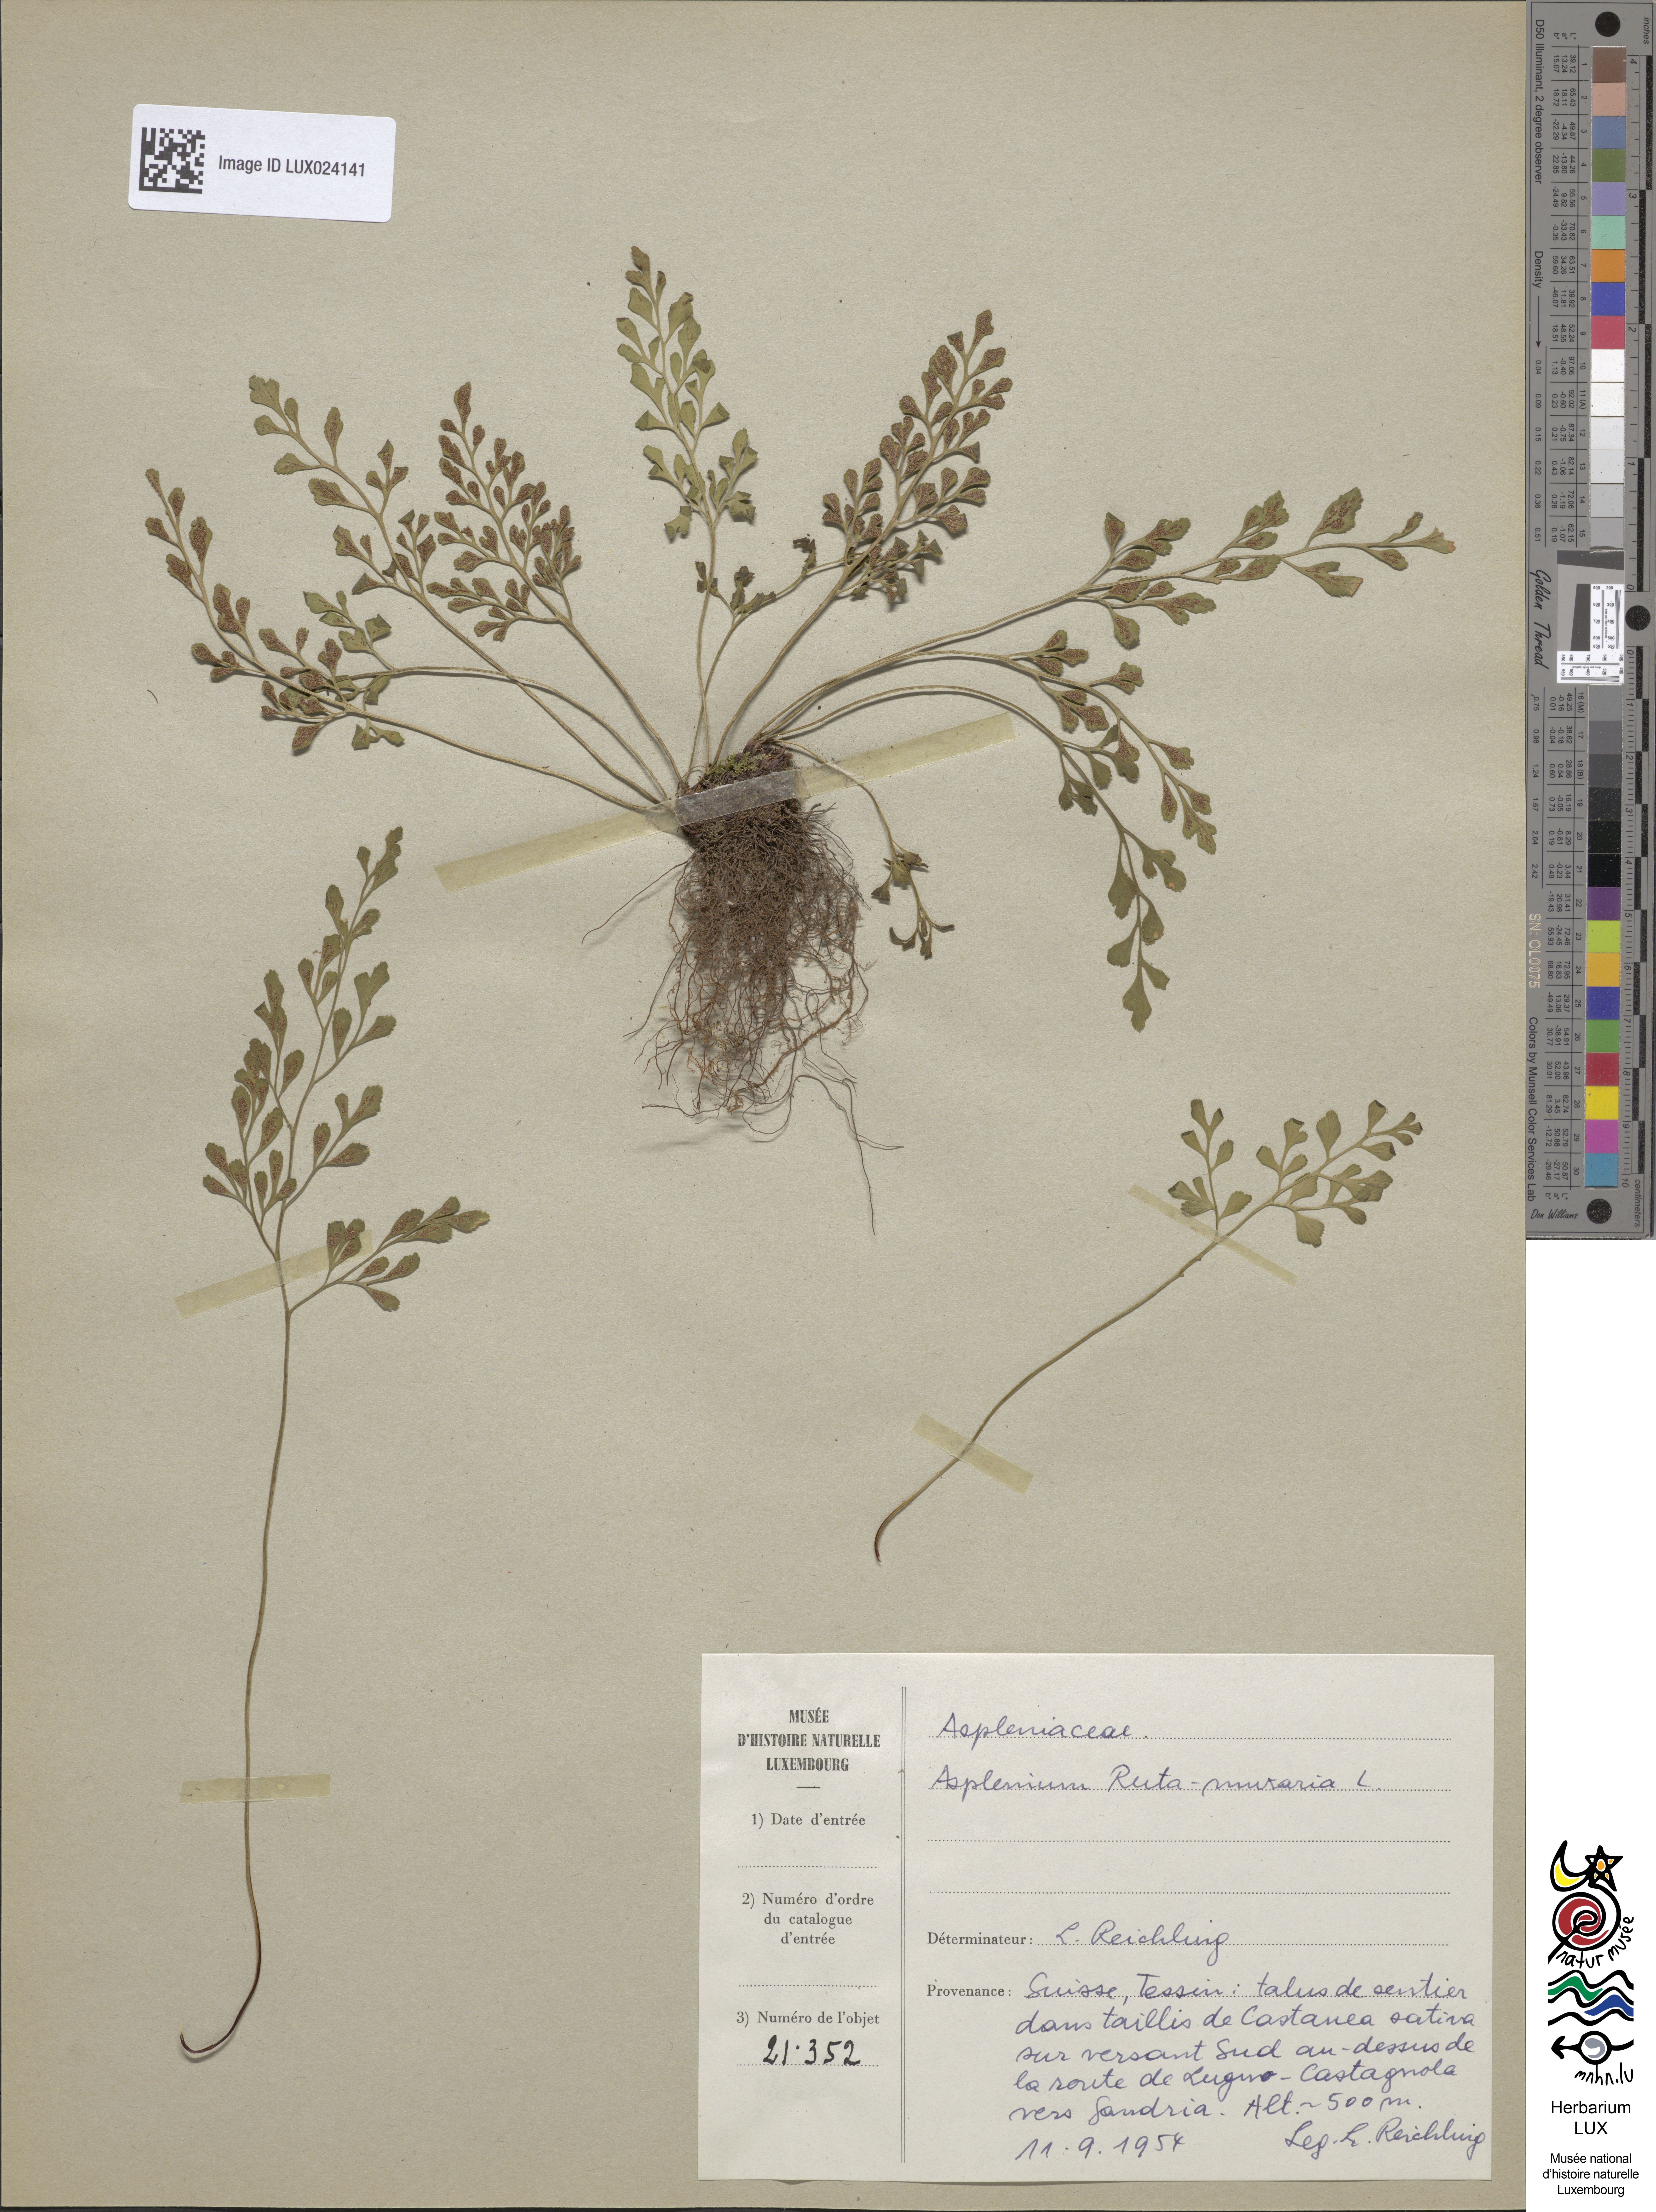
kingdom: Plantae
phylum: Tracheophyta
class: Polypodiopsida
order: Polypodiales
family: Aspleniaceae
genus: Asplenium
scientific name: Asplenium ruta-muraria
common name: Wall-rue
